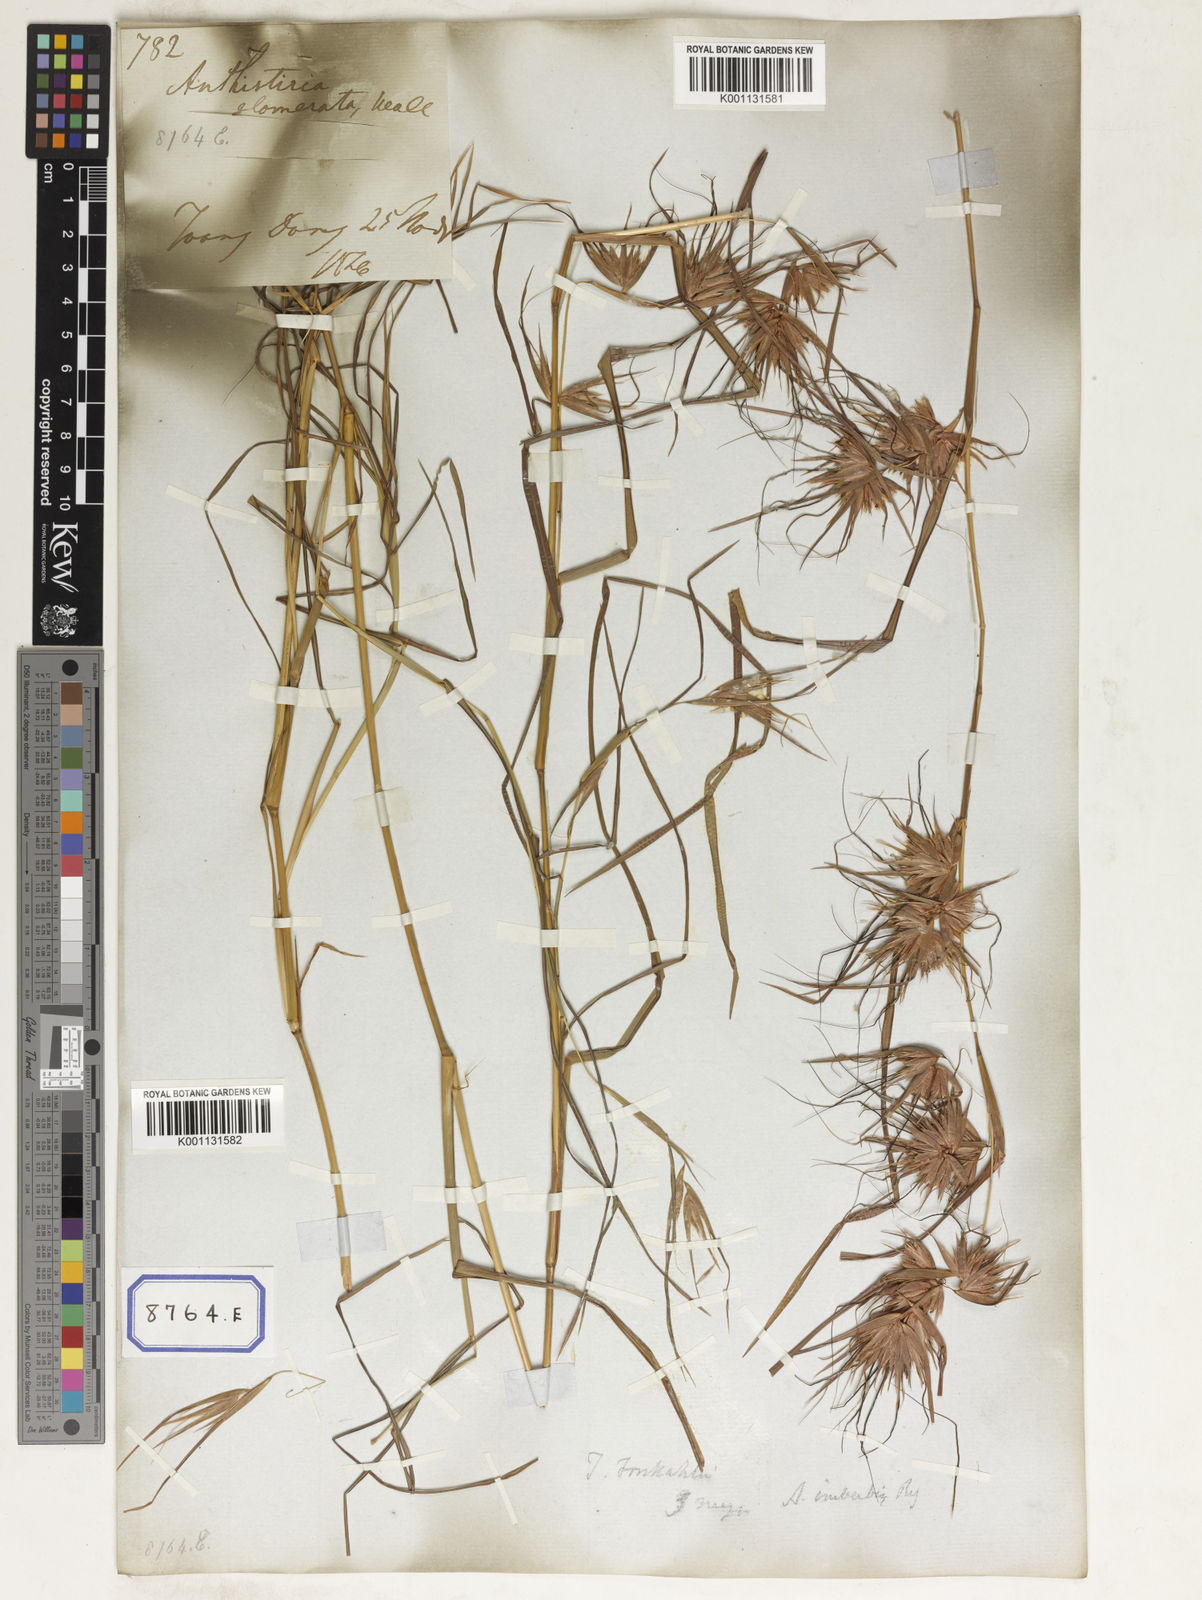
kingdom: Plantae
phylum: Tracheophyta
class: Liliopsida
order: Poales
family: Poaceae
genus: Themeda
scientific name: Themeda
